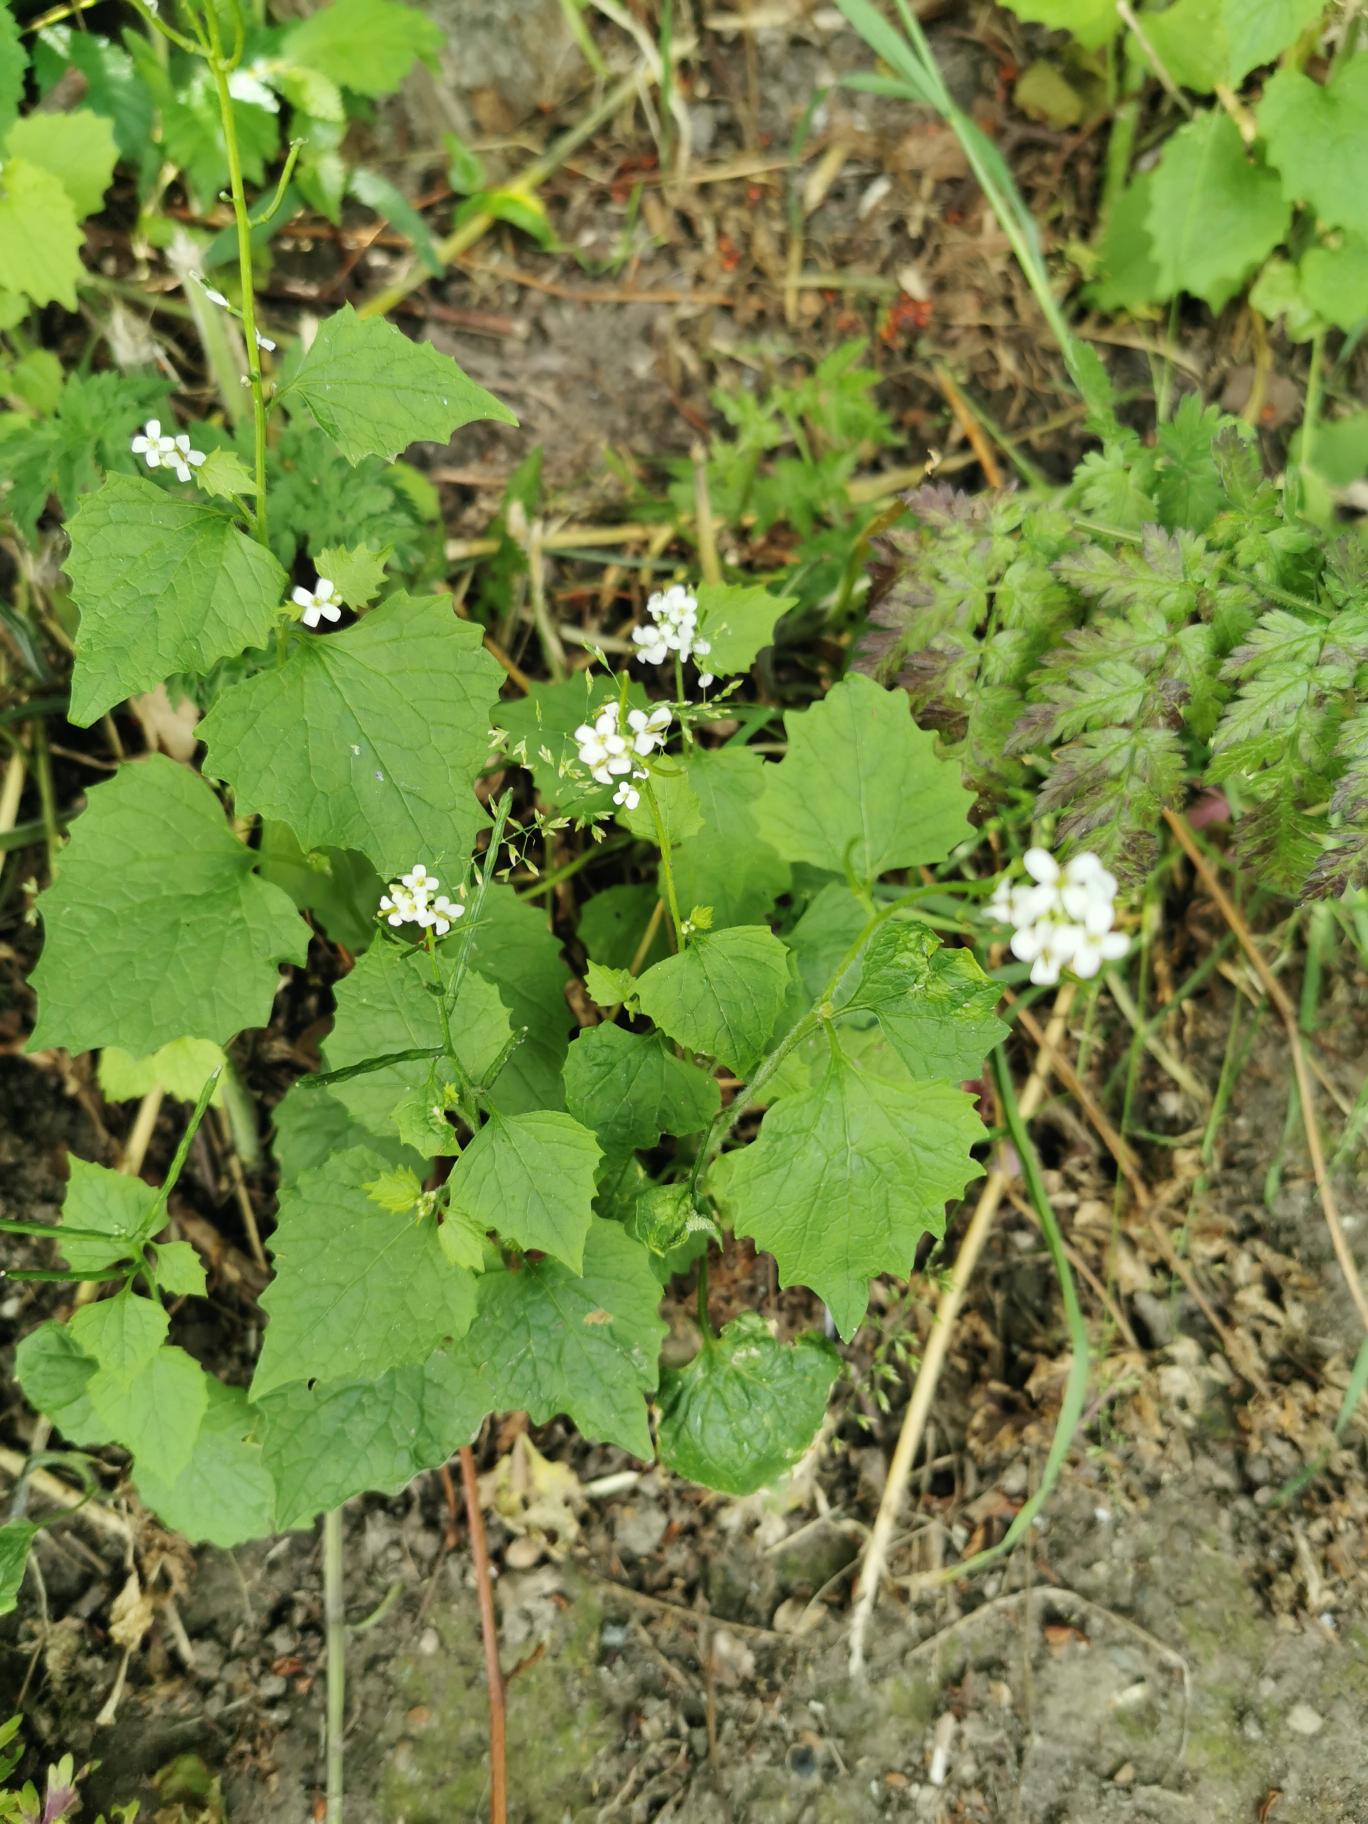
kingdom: Plantae
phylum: Tracheophyta
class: Magnoliopsida
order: Brassicales
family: Brassicaceae
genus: Alliaria
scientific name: Alliaria petiolata
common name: Løgkarse
